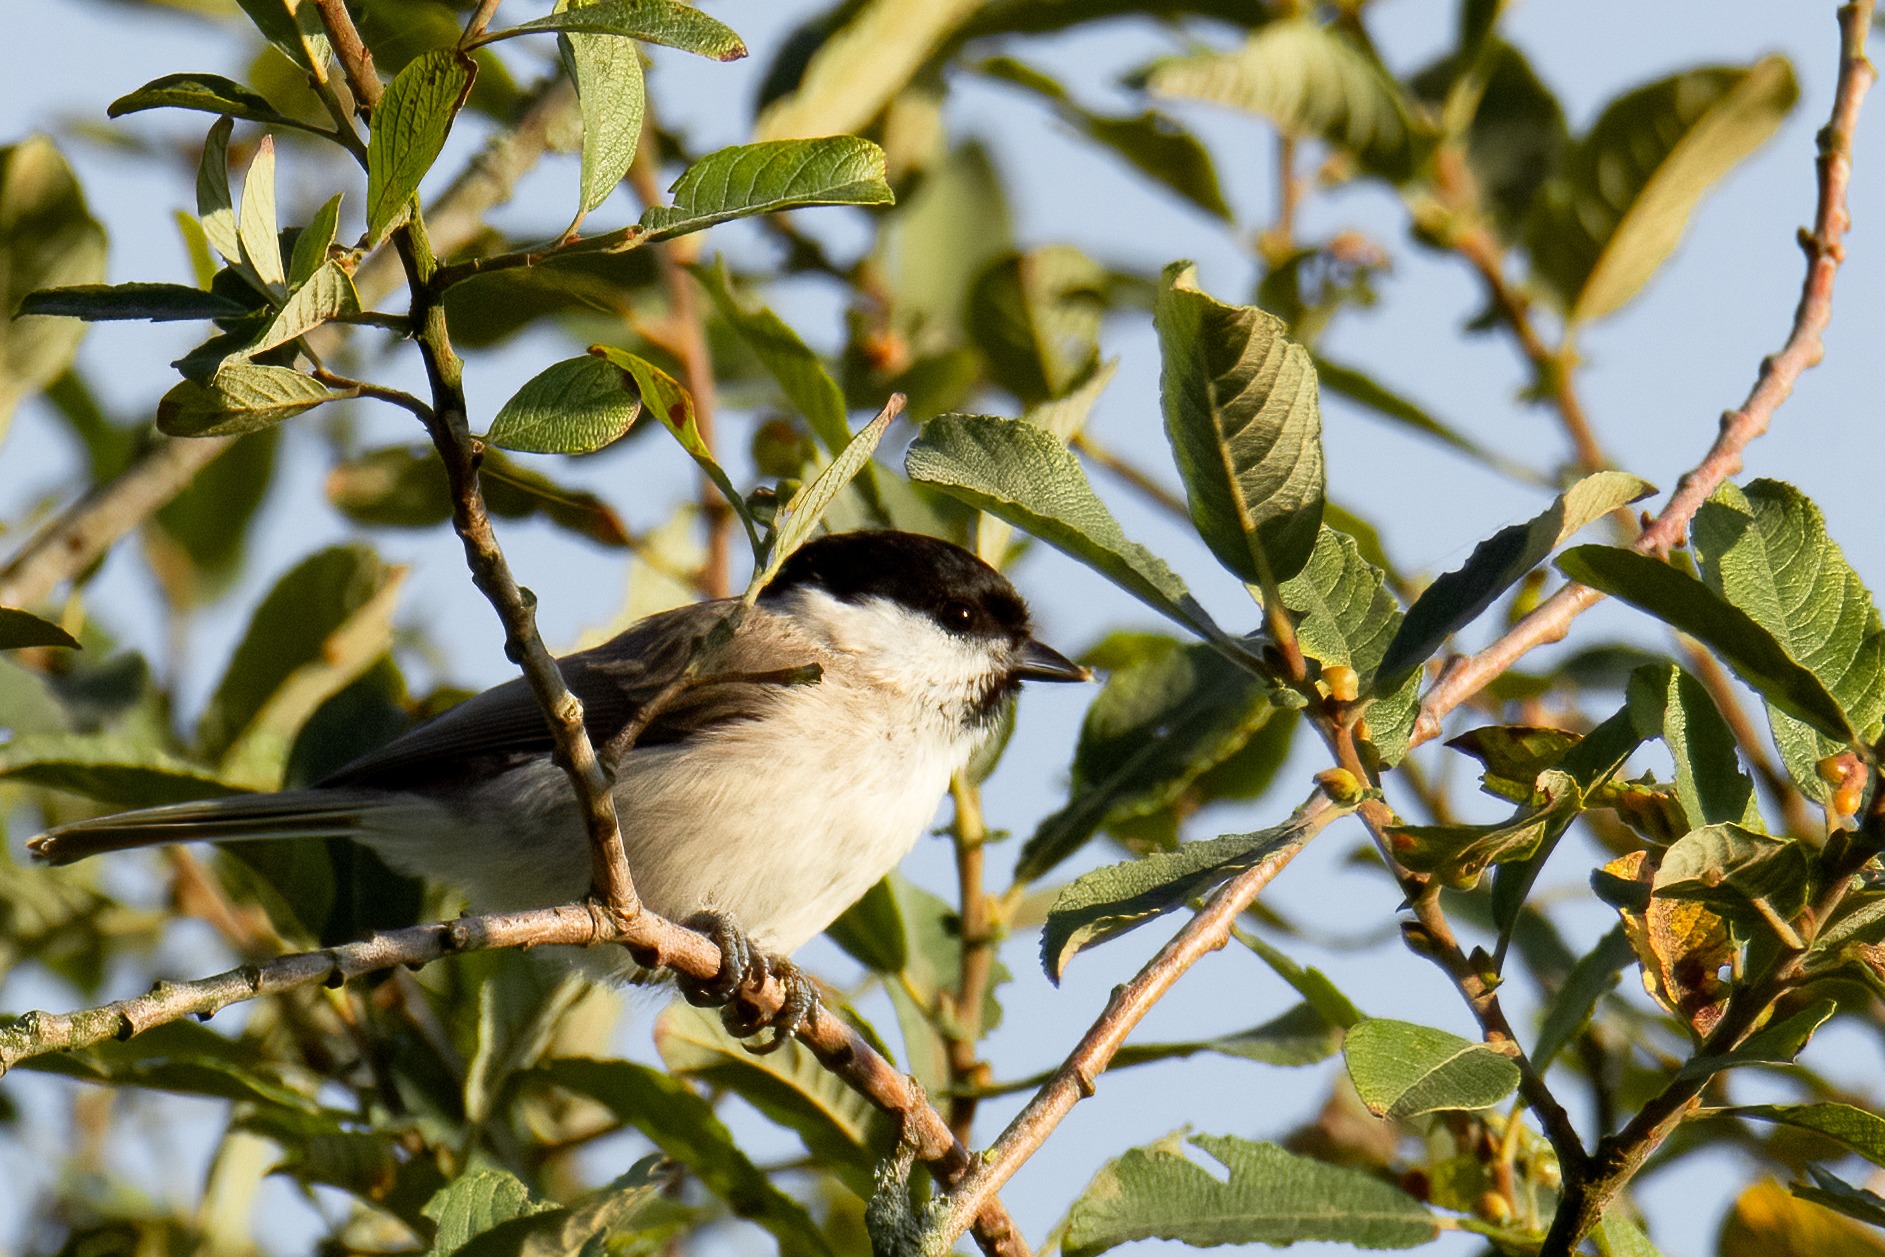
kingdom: Animalia
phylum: Chordata
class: Aves
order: Passeriformes
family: Paridae
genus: Poecile
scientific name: Poecile palustris
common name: Sumpmejse
